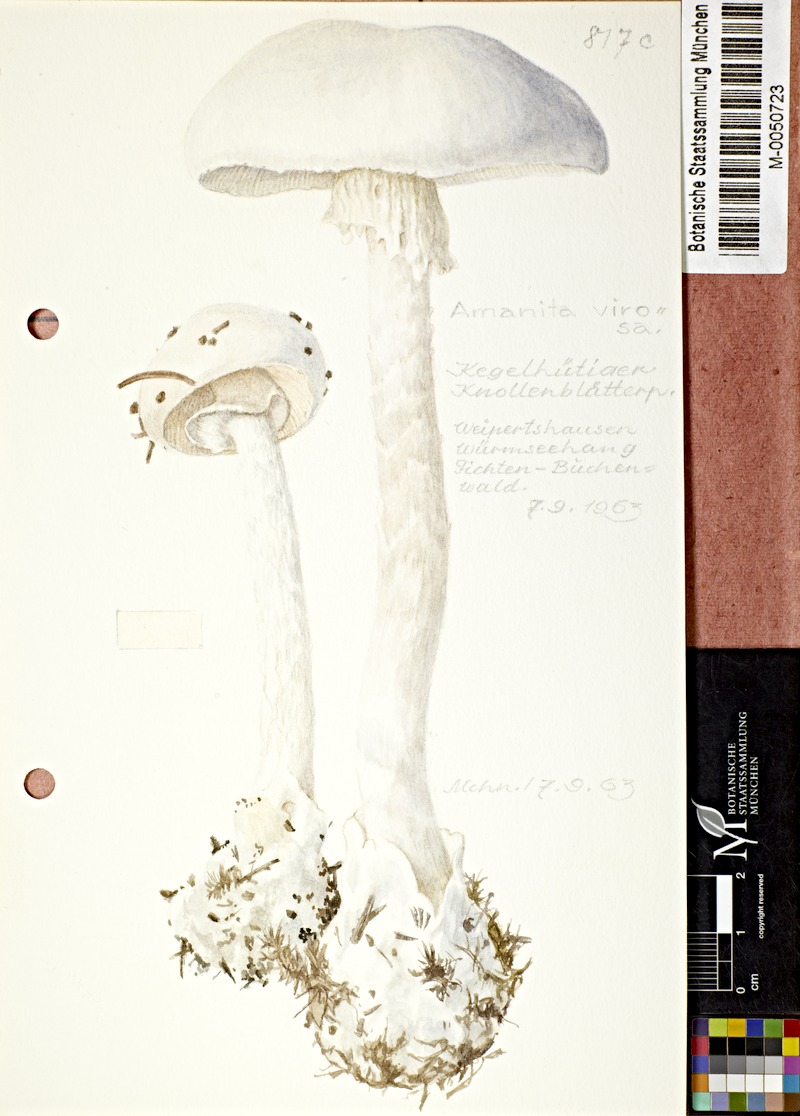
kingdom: Fungi
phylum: Basidiomycota
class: Agaricomycetes
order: Agaricales
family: Amanitaceae
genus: Amanita
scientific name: Amanita virosa
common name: Destroying angel
